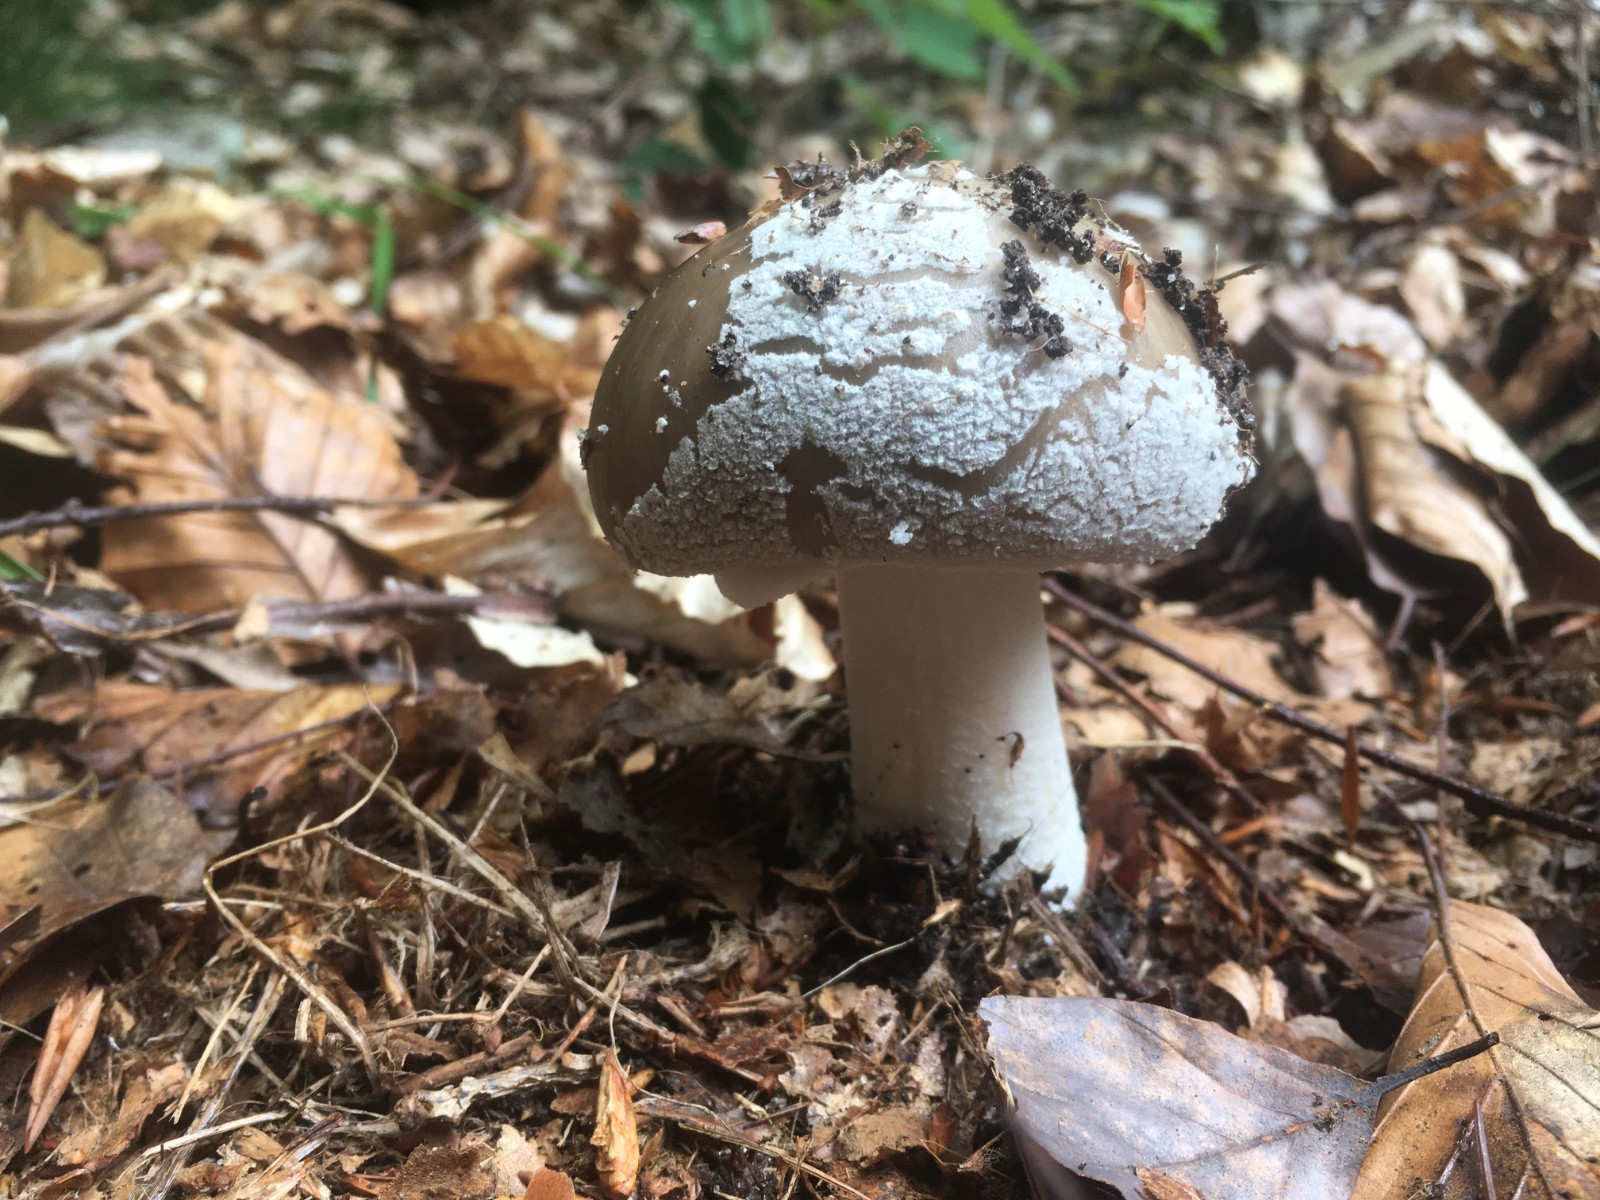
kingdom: Fungi
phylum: Basidiomycota
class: Agaricomycetes
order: Agaricales
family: Amanitaceae
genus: Amanita
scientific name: Amanita
